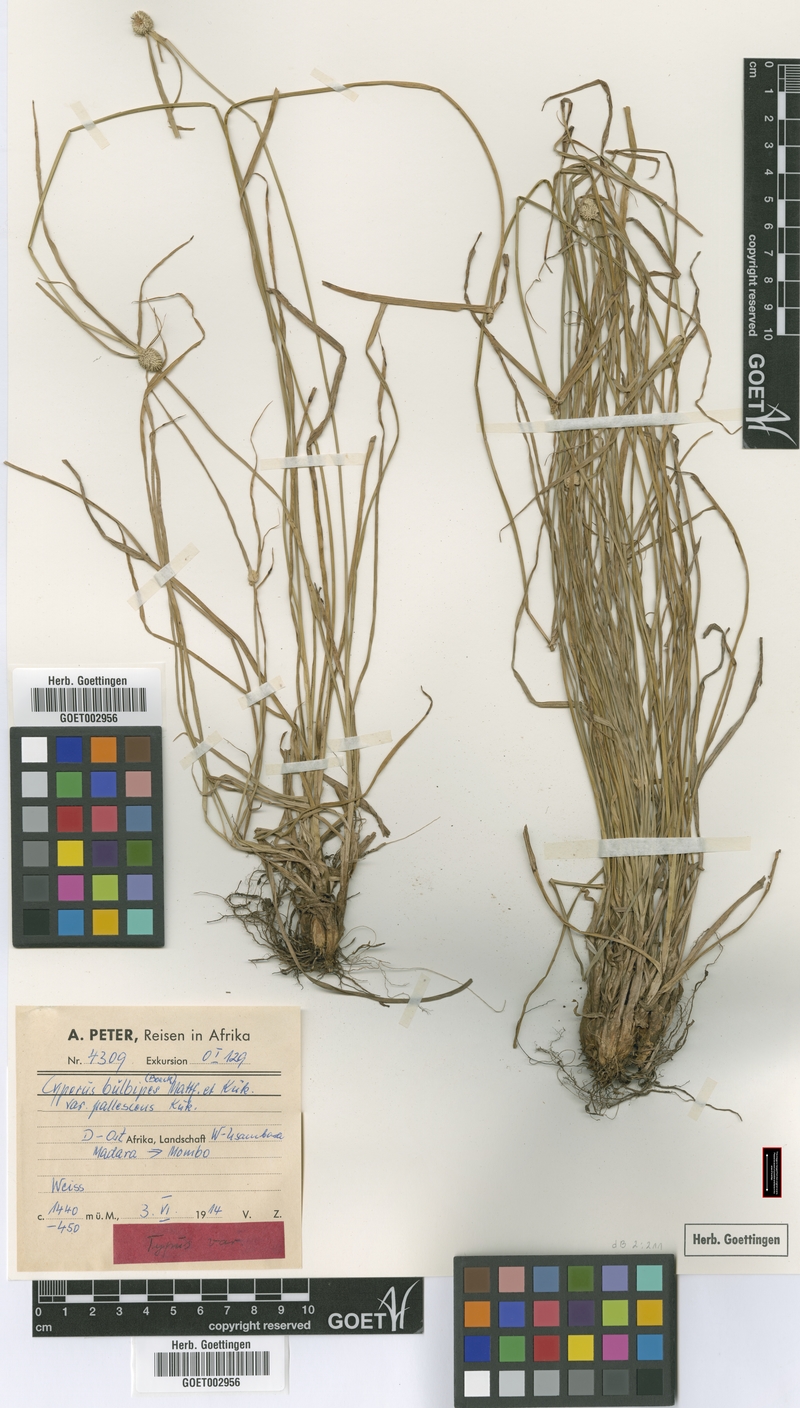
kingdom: Plantae
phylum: Tracheophyta
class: Liliopsida
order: Poales
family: Cyperaceae
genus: Cyperus
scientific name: Cyperus bulbipes
